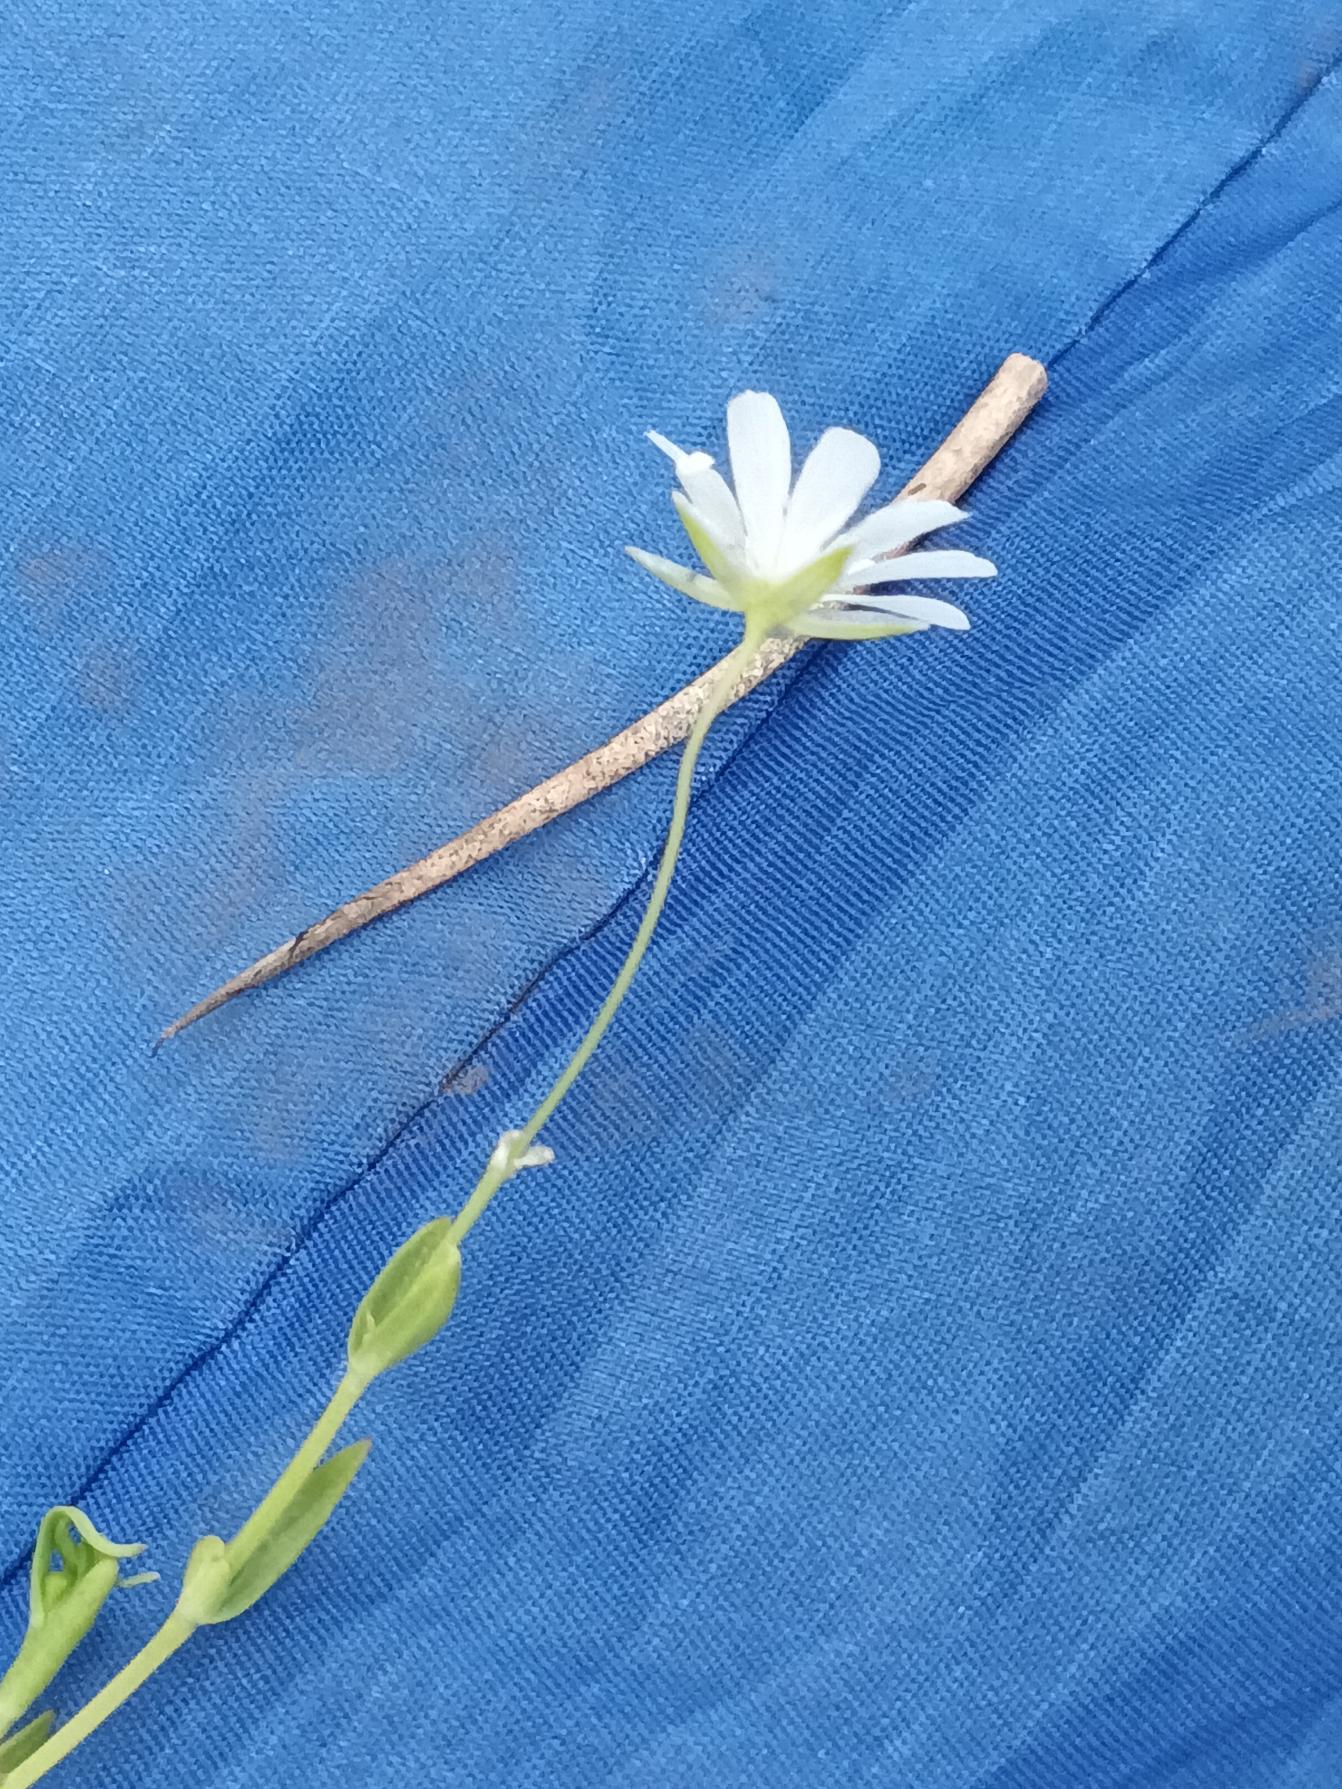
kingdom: Plantae
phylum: Tracheophyta
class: Magnoliopsida
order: Caryophyllales
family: Caryophyllaceae
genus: Stellaria
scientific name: Stellaria palustris
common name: Kær-fladstjerne
